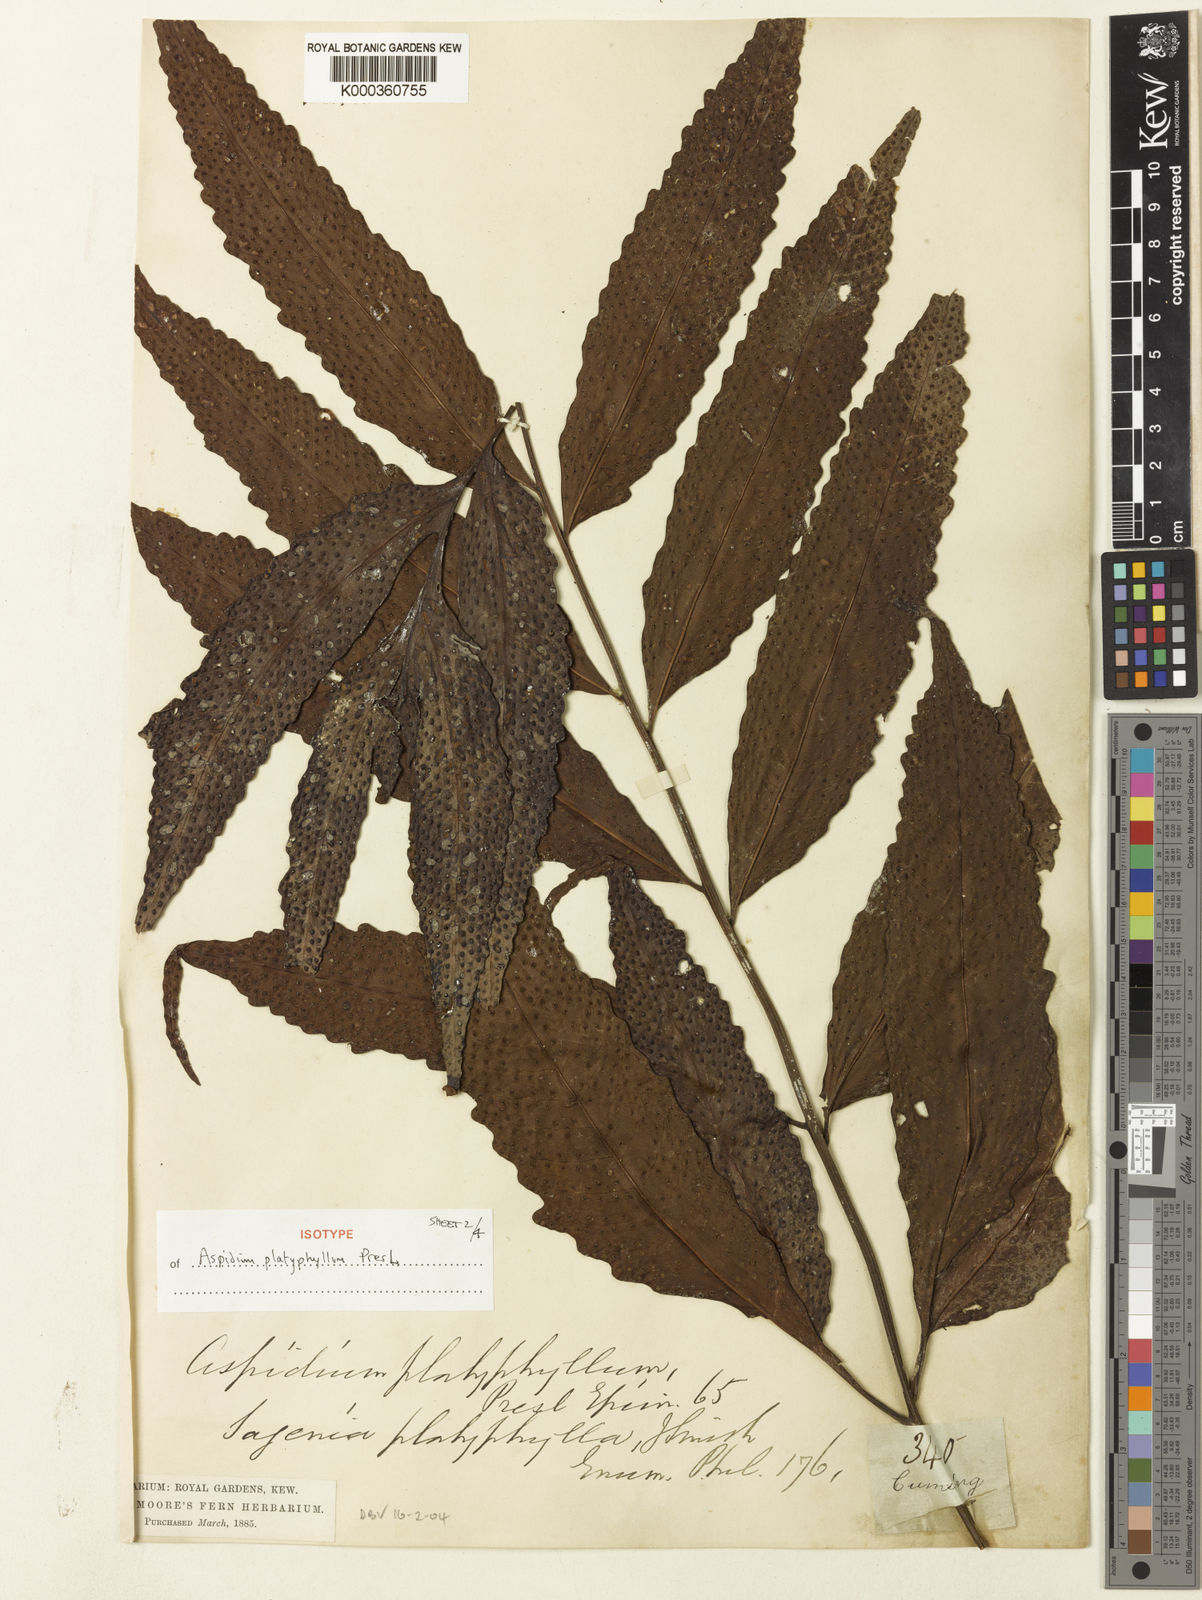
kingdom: Plantae
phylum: Tracheophyta
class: Polypodiopsida
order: Polypodiales
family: Tectariaceae
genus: Tectaria
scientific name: Tectaria repanda
